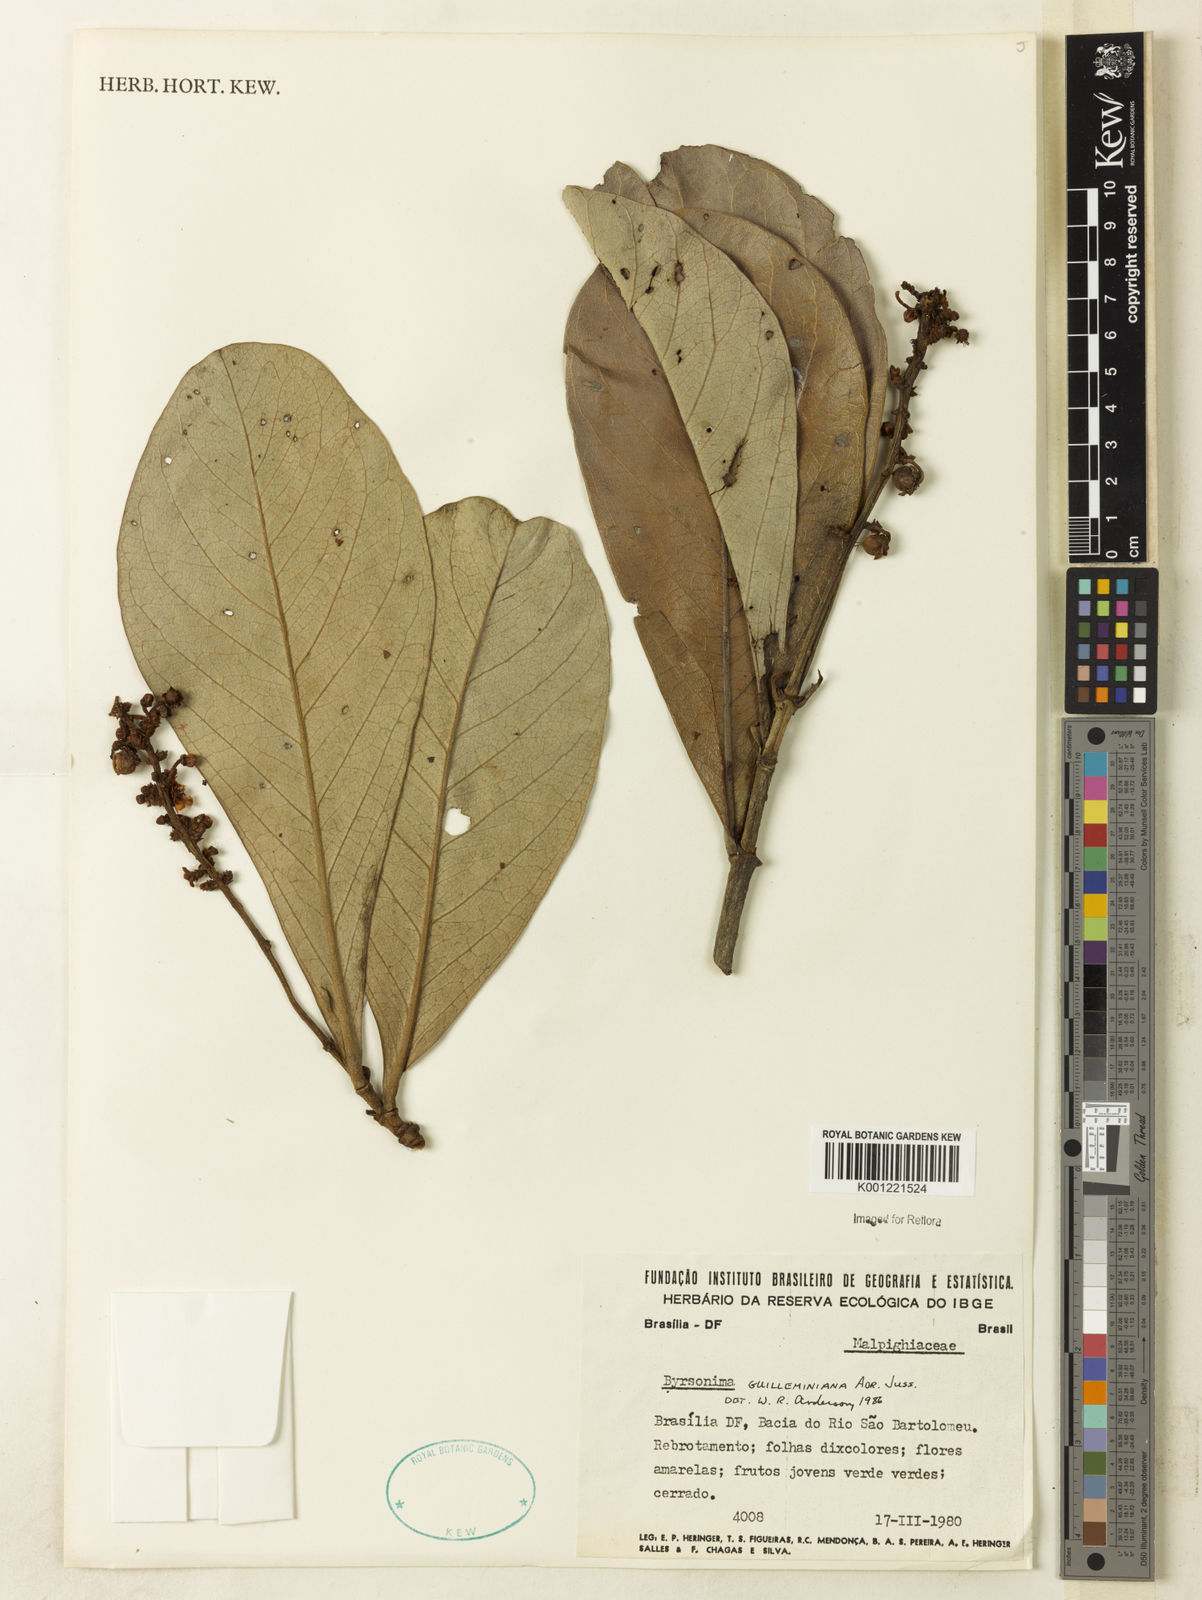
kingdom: Plantae
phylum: Tracheophyta
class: Magnoliopsida
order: Malpighiales
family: Malpighiaceae
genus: Byrsonima
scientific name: Byrsonima guilleminiana
